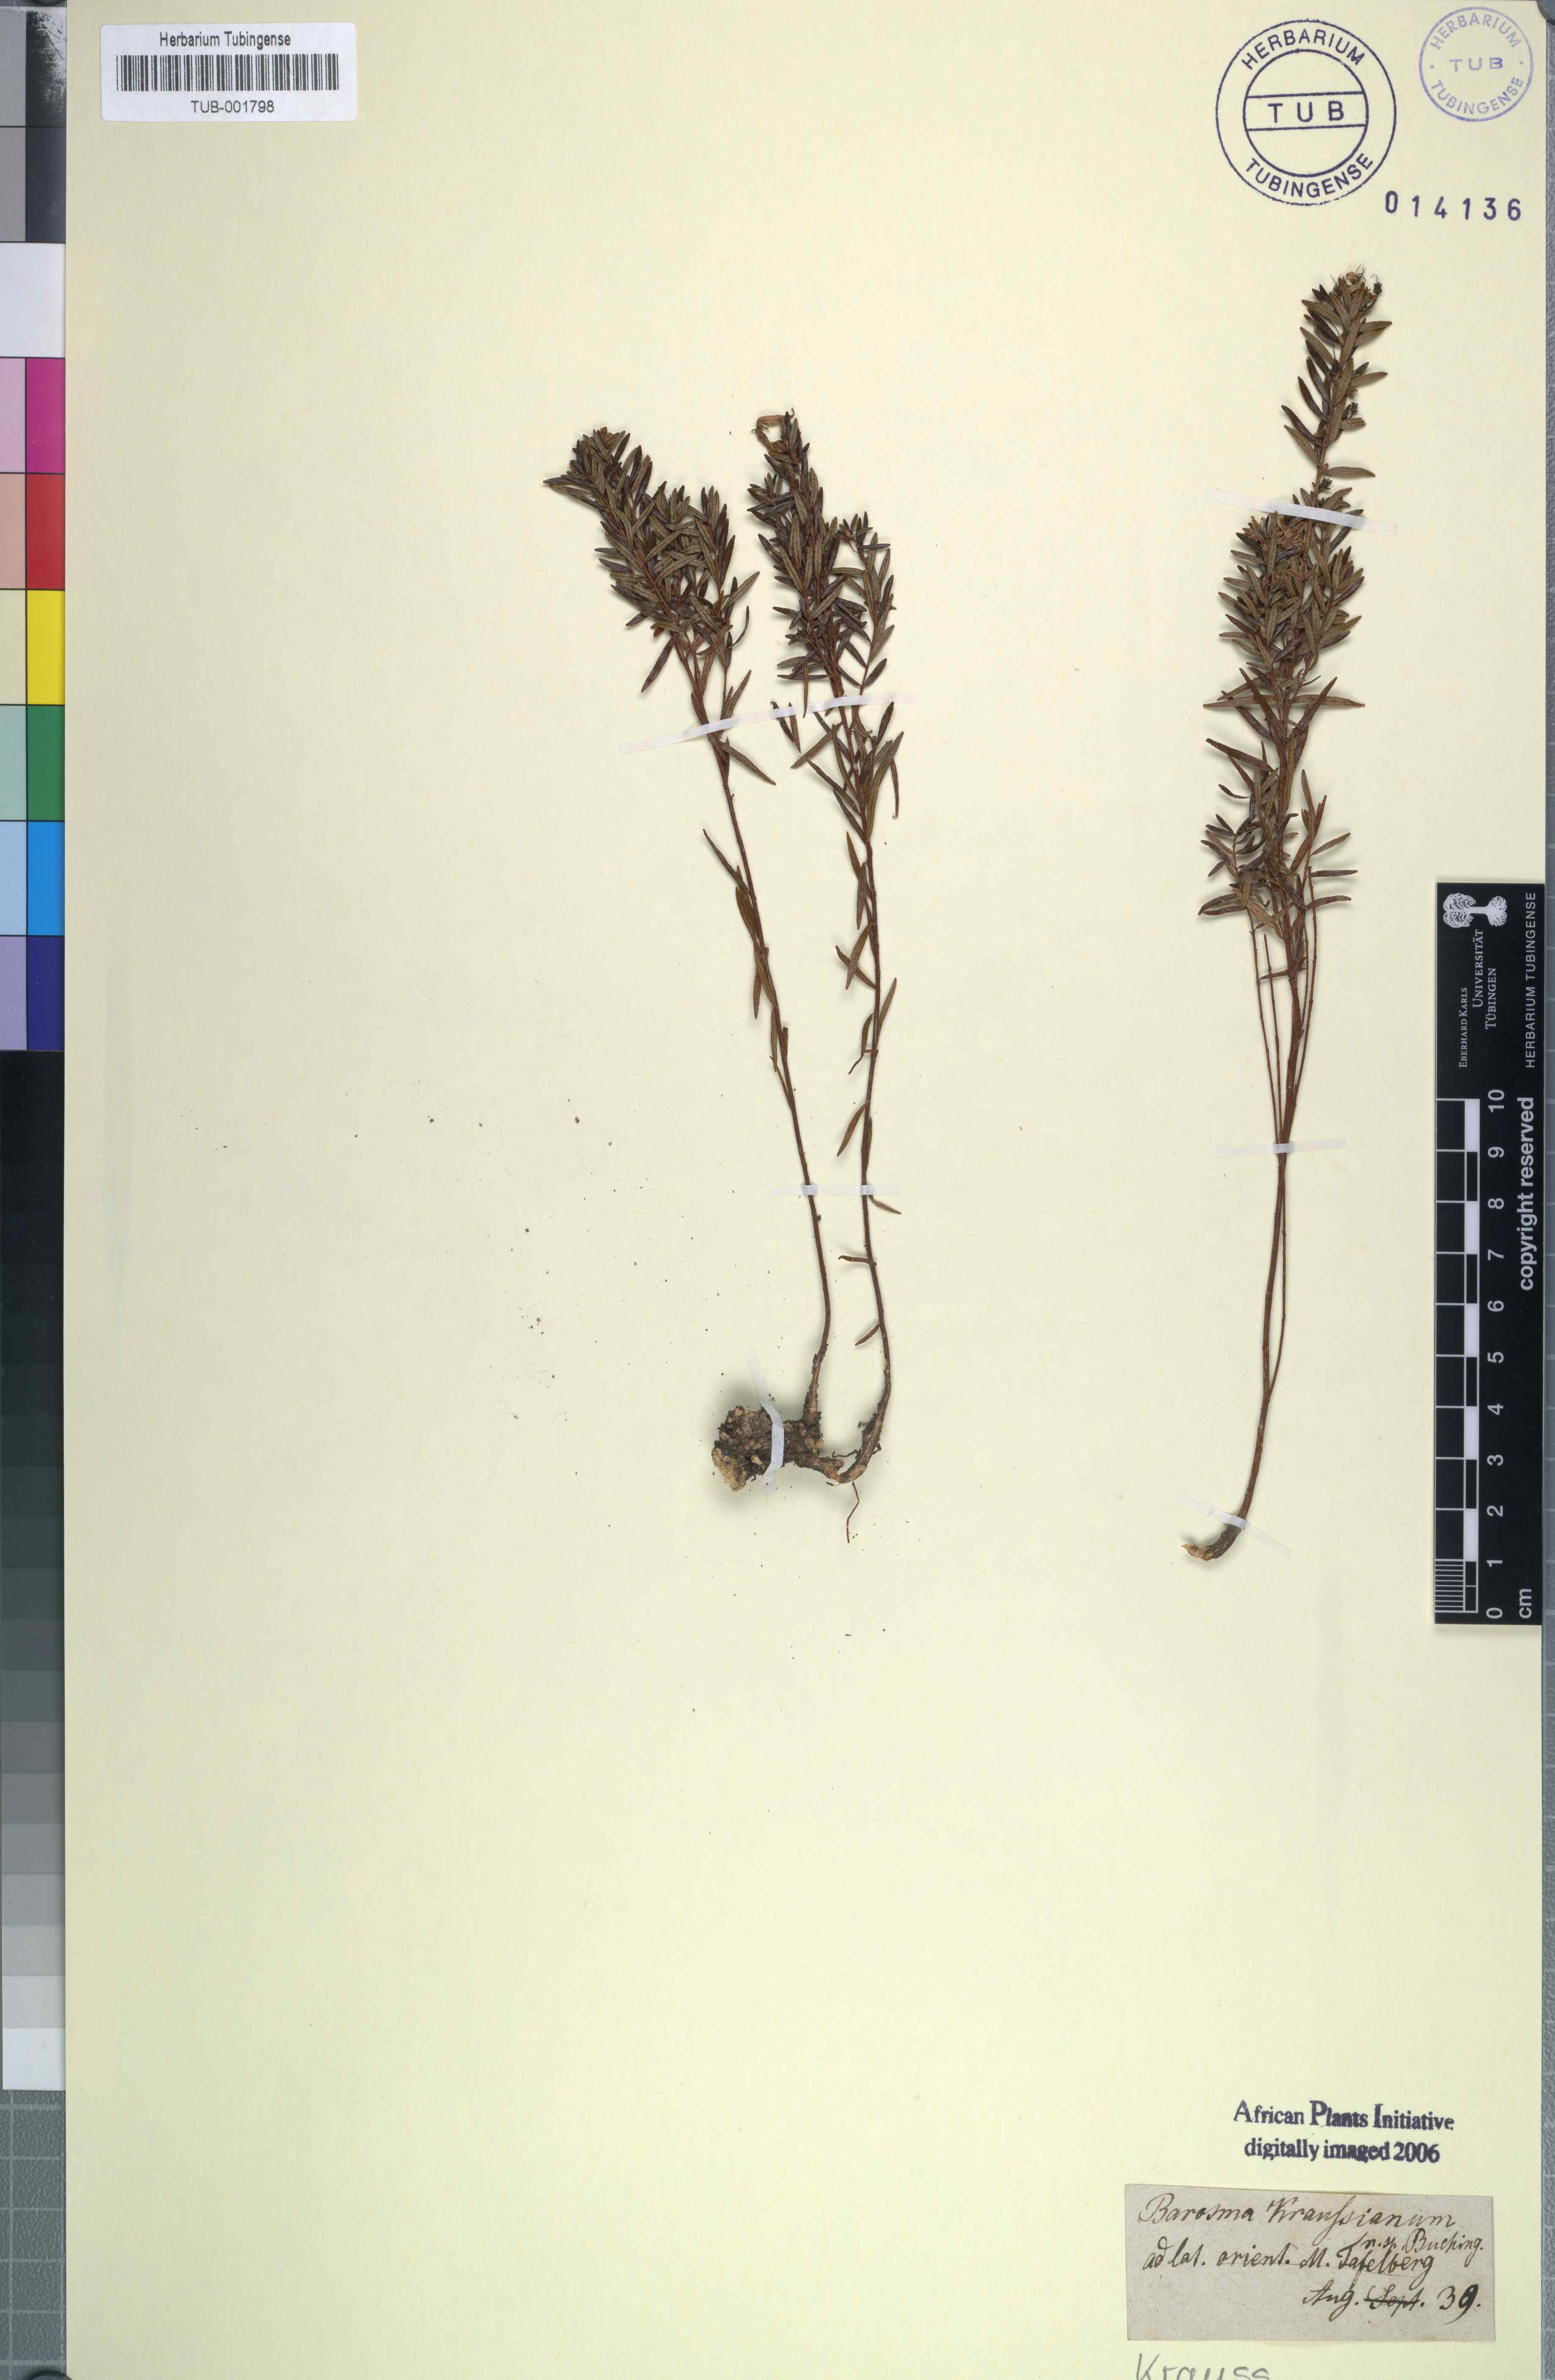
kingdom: Plantae
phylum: Tracheophyta
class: Magnoliopsida
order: Sapindales
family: Rutaceae
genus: Agathosma
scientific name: Agathosma ovata
